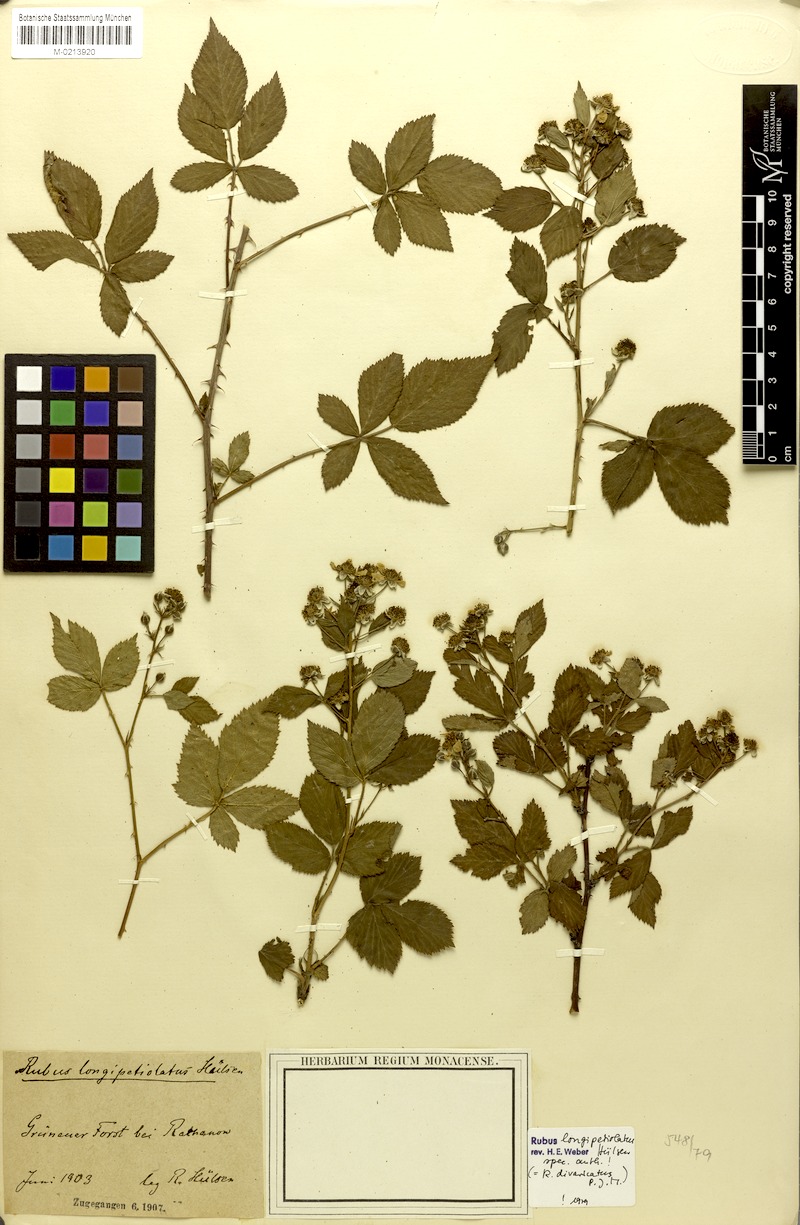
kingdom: Plantae
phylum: Tracheophyta
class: Magnoliopsida
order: Rosales
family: Rosaceae
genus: Rubus
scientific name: Rubus divaricatus
